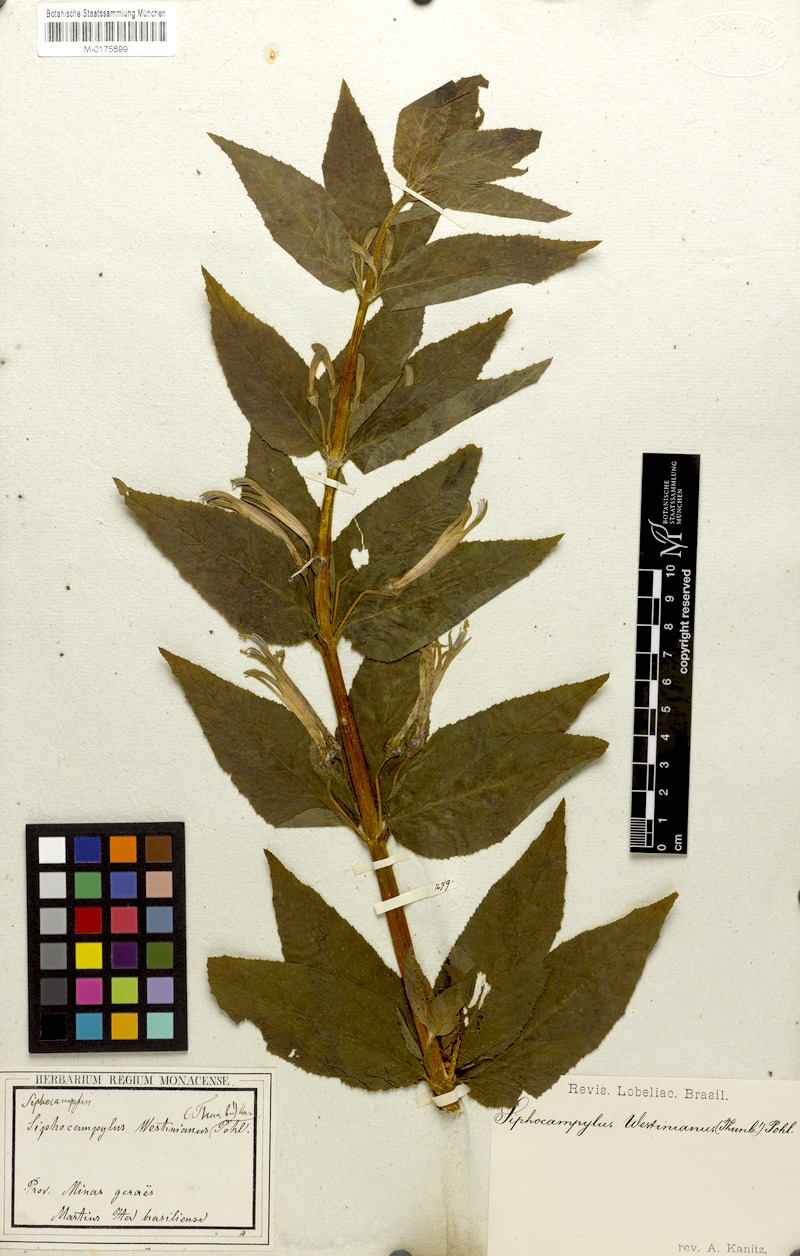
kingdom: Plantae
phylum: Tracheophyta
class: Magnoliopsida
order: Asterales
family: Campanulaceae
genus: Siphocampylus
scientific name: Siphocampylus westinianus
